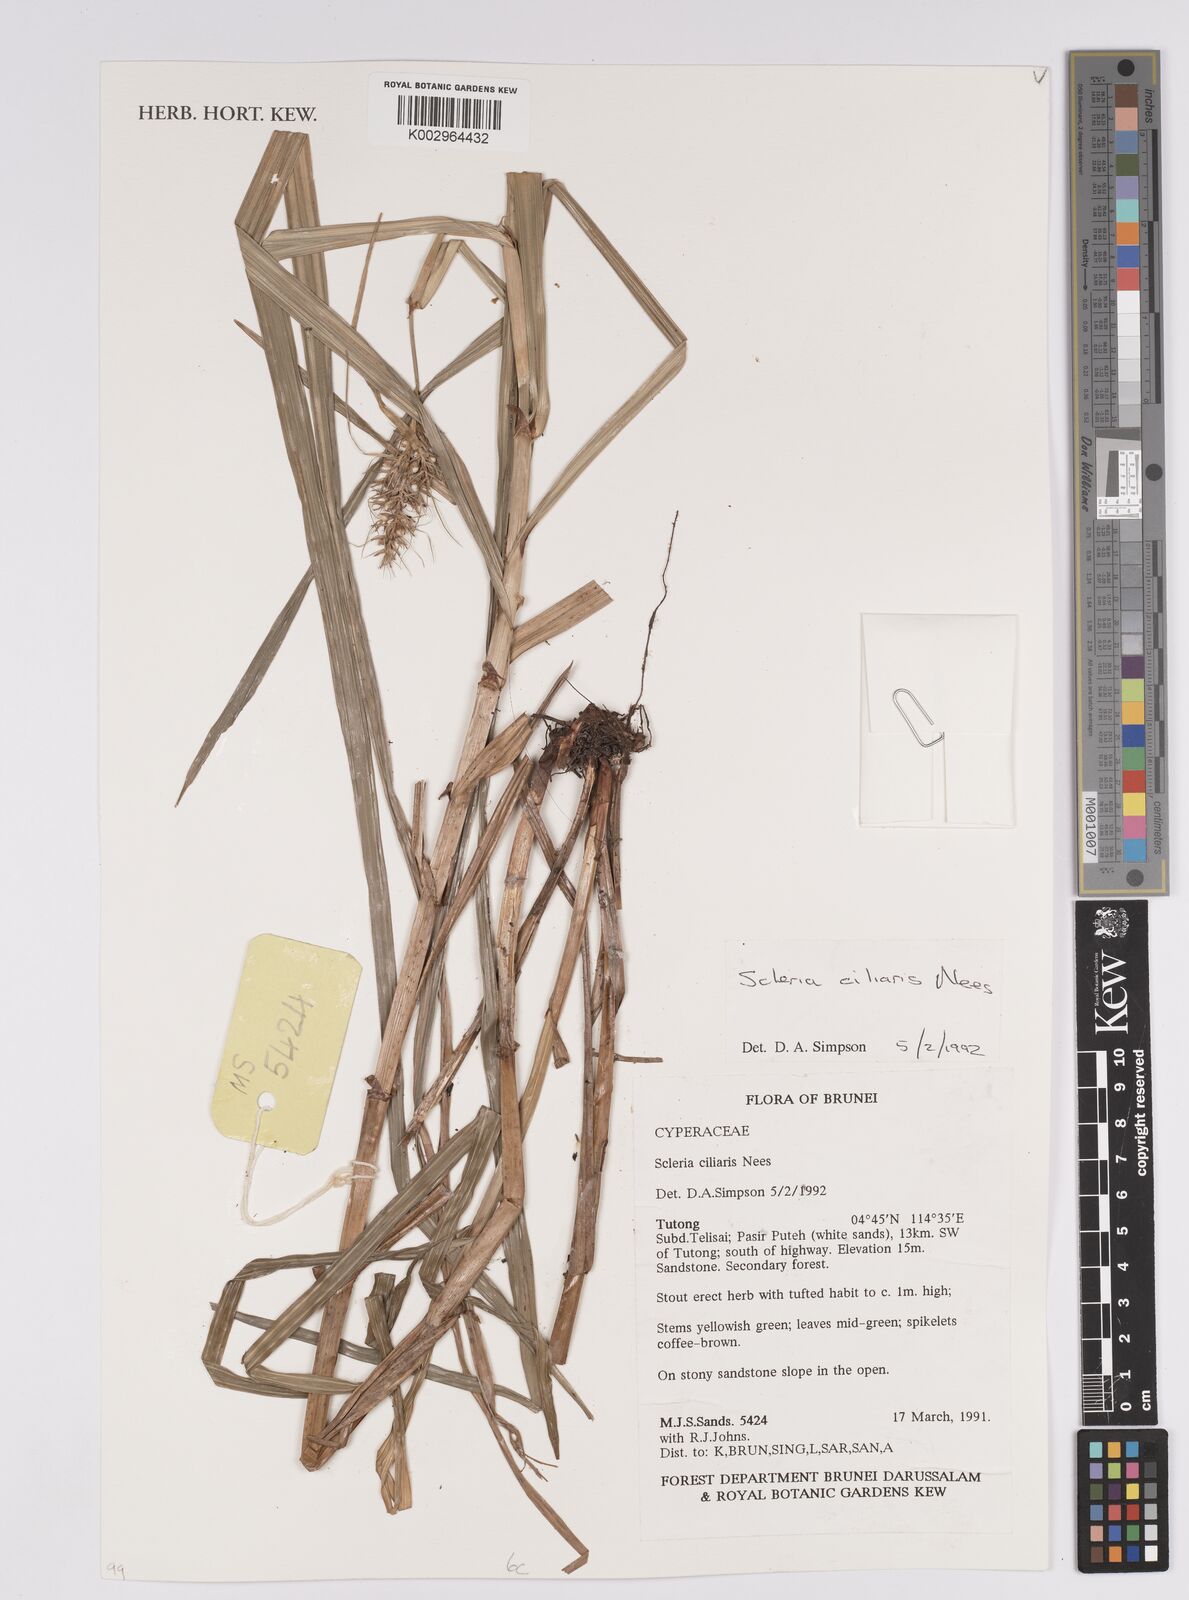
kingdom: Plantae
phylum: Tracheophyta
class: Liliopsida
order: Poales
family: Cyperaceae
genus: Scleria
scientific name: Scleria ciliaris
